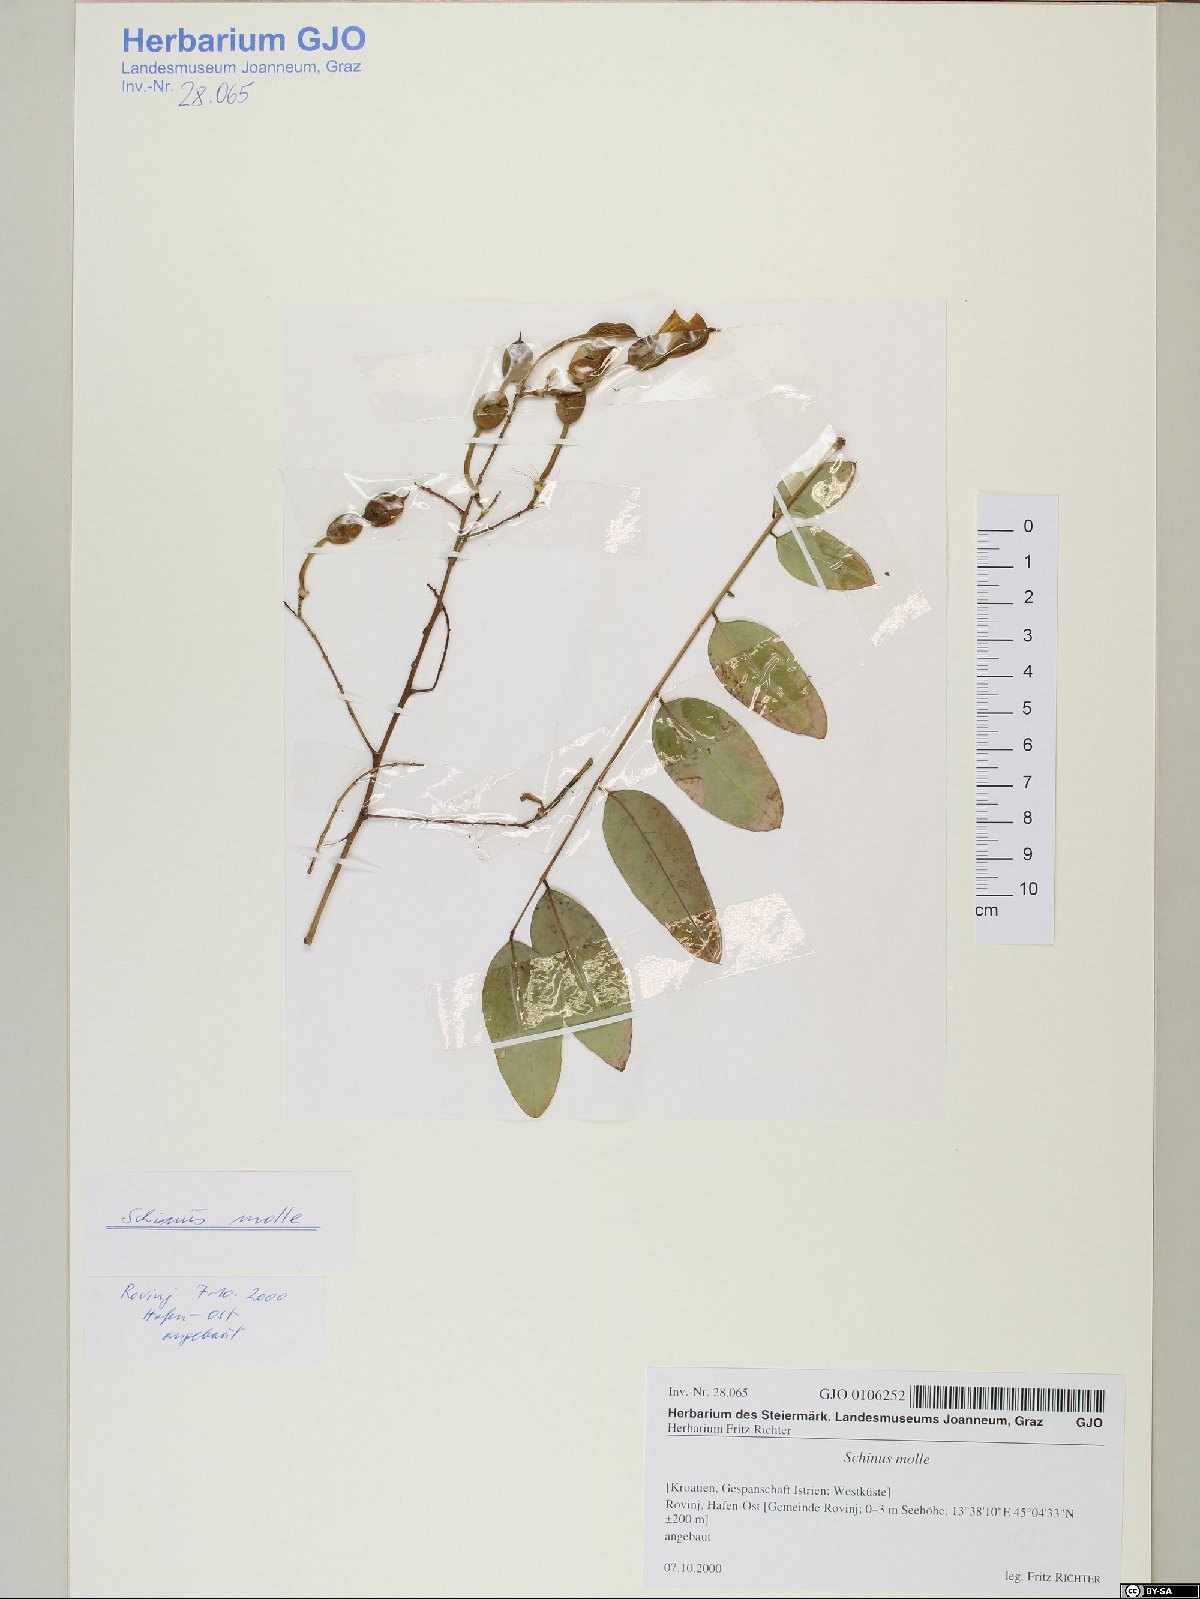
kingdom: Plantae
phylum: Tracheophyta
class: Magnoliopsida
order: Sapindales
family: Meliaceae
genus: Melia
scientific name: Melia azedarach
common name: Chinaberrytree
